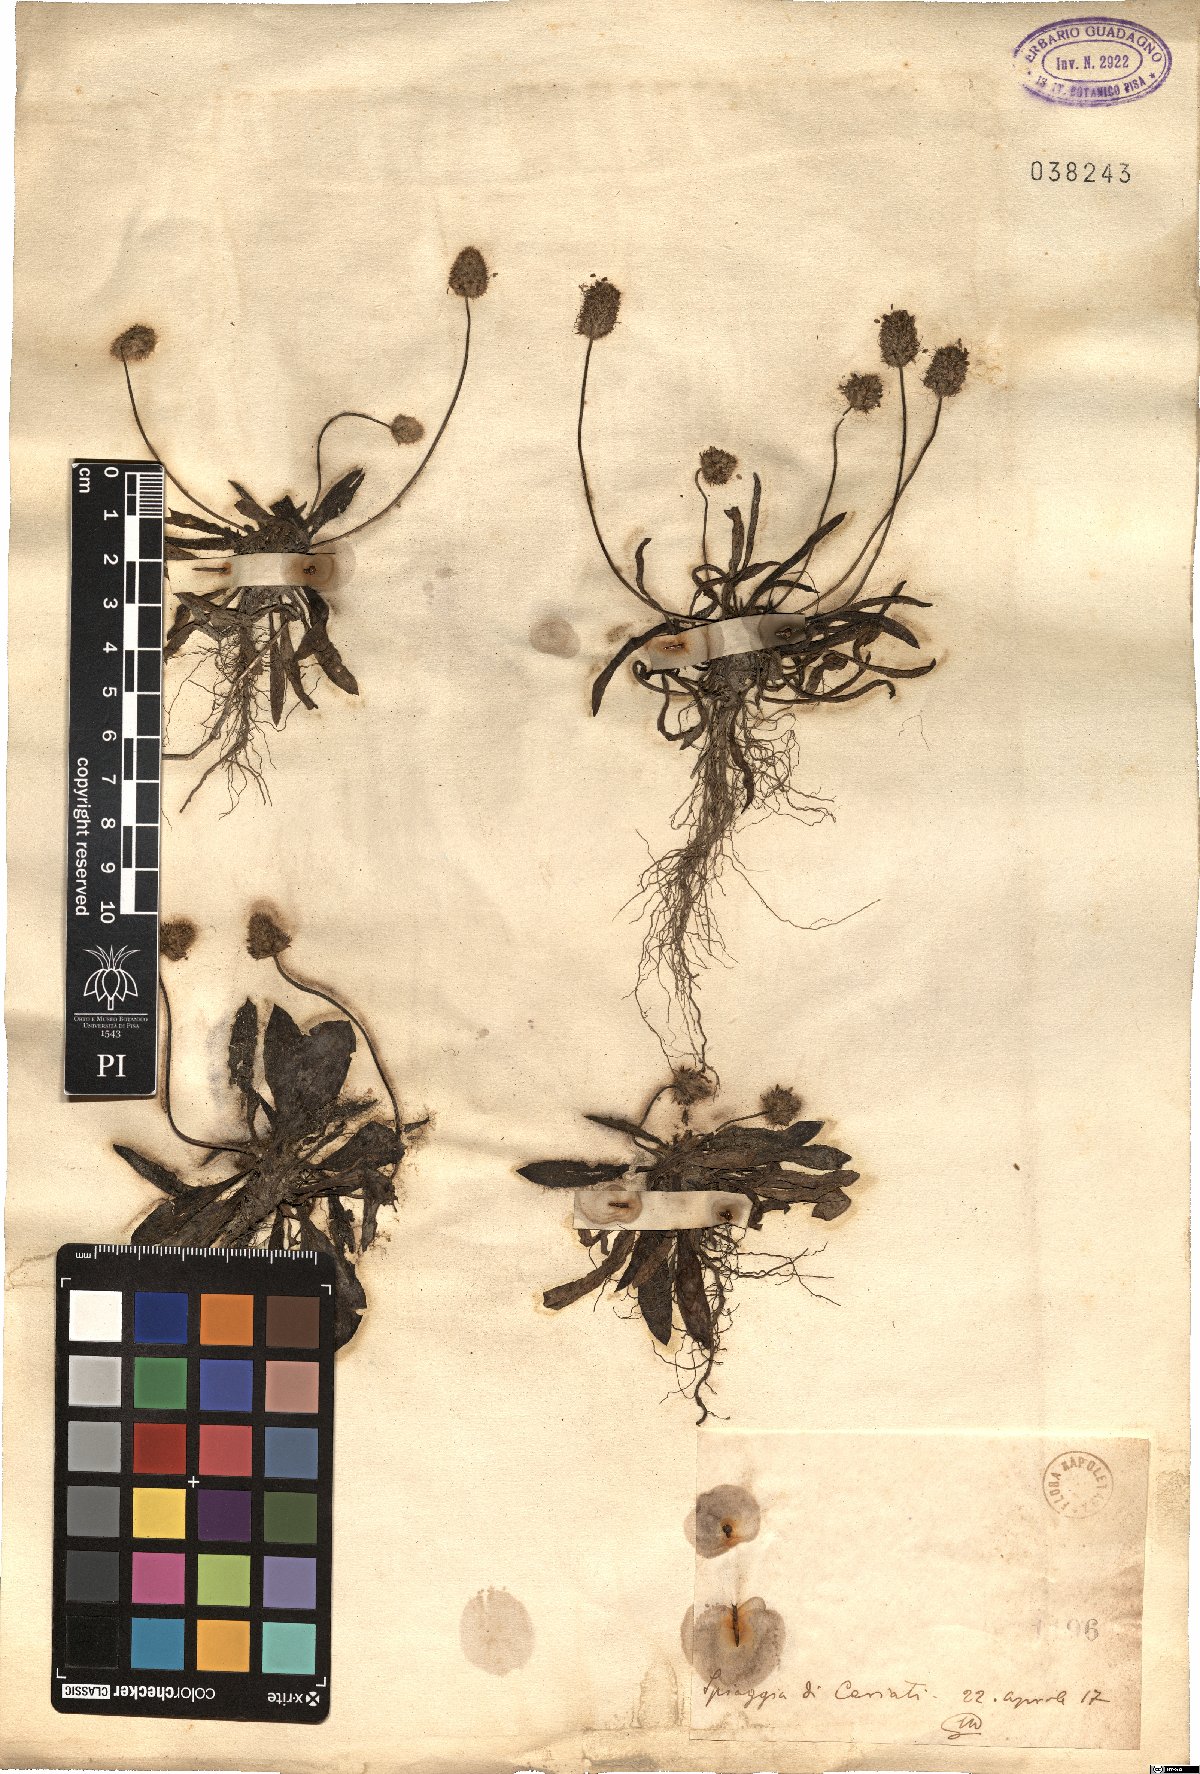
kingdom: Plantae
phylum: Tracheophyta
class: Magnoliopsida
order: Lamiales
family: Plantaginaceae
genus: Plantago
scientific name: Plantago
